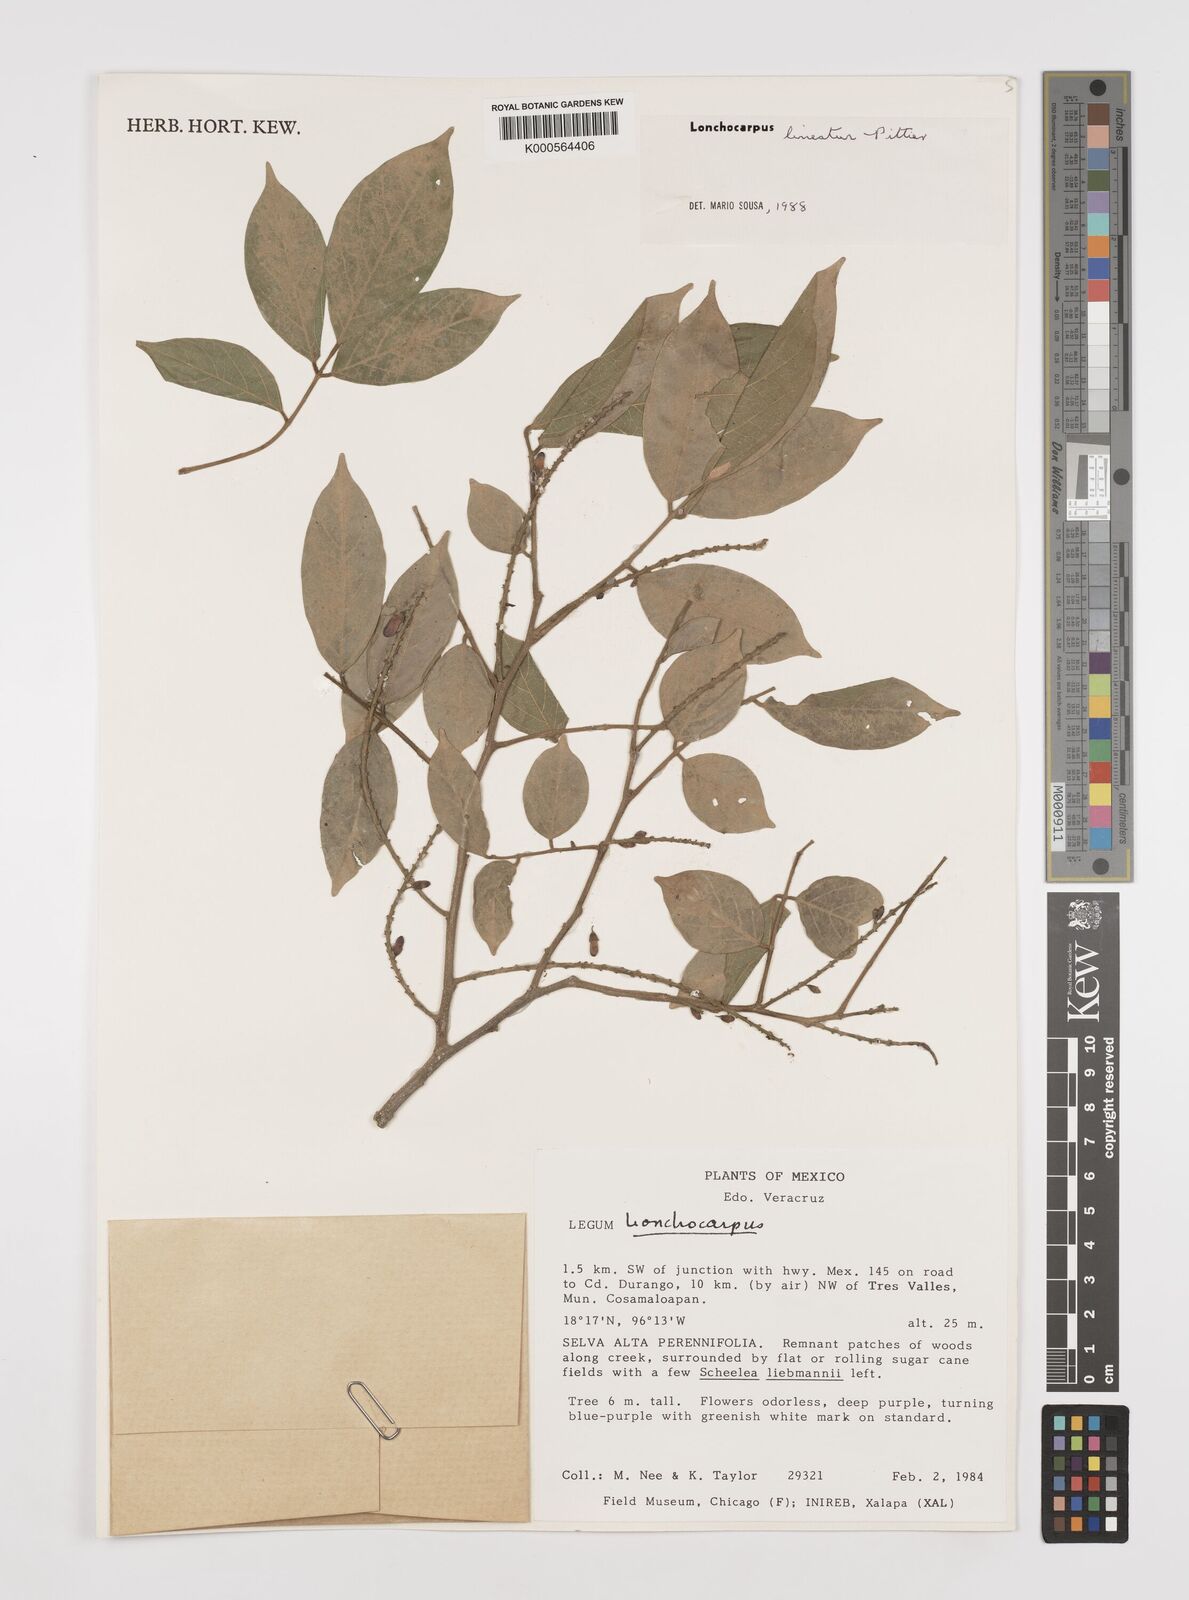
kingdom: Plantae
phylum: Tracheophyta
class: Magnoliopsida
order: Fabales
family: Fabaceae
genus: Lonchocarpus
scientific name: Lonchocarpus lineatus
